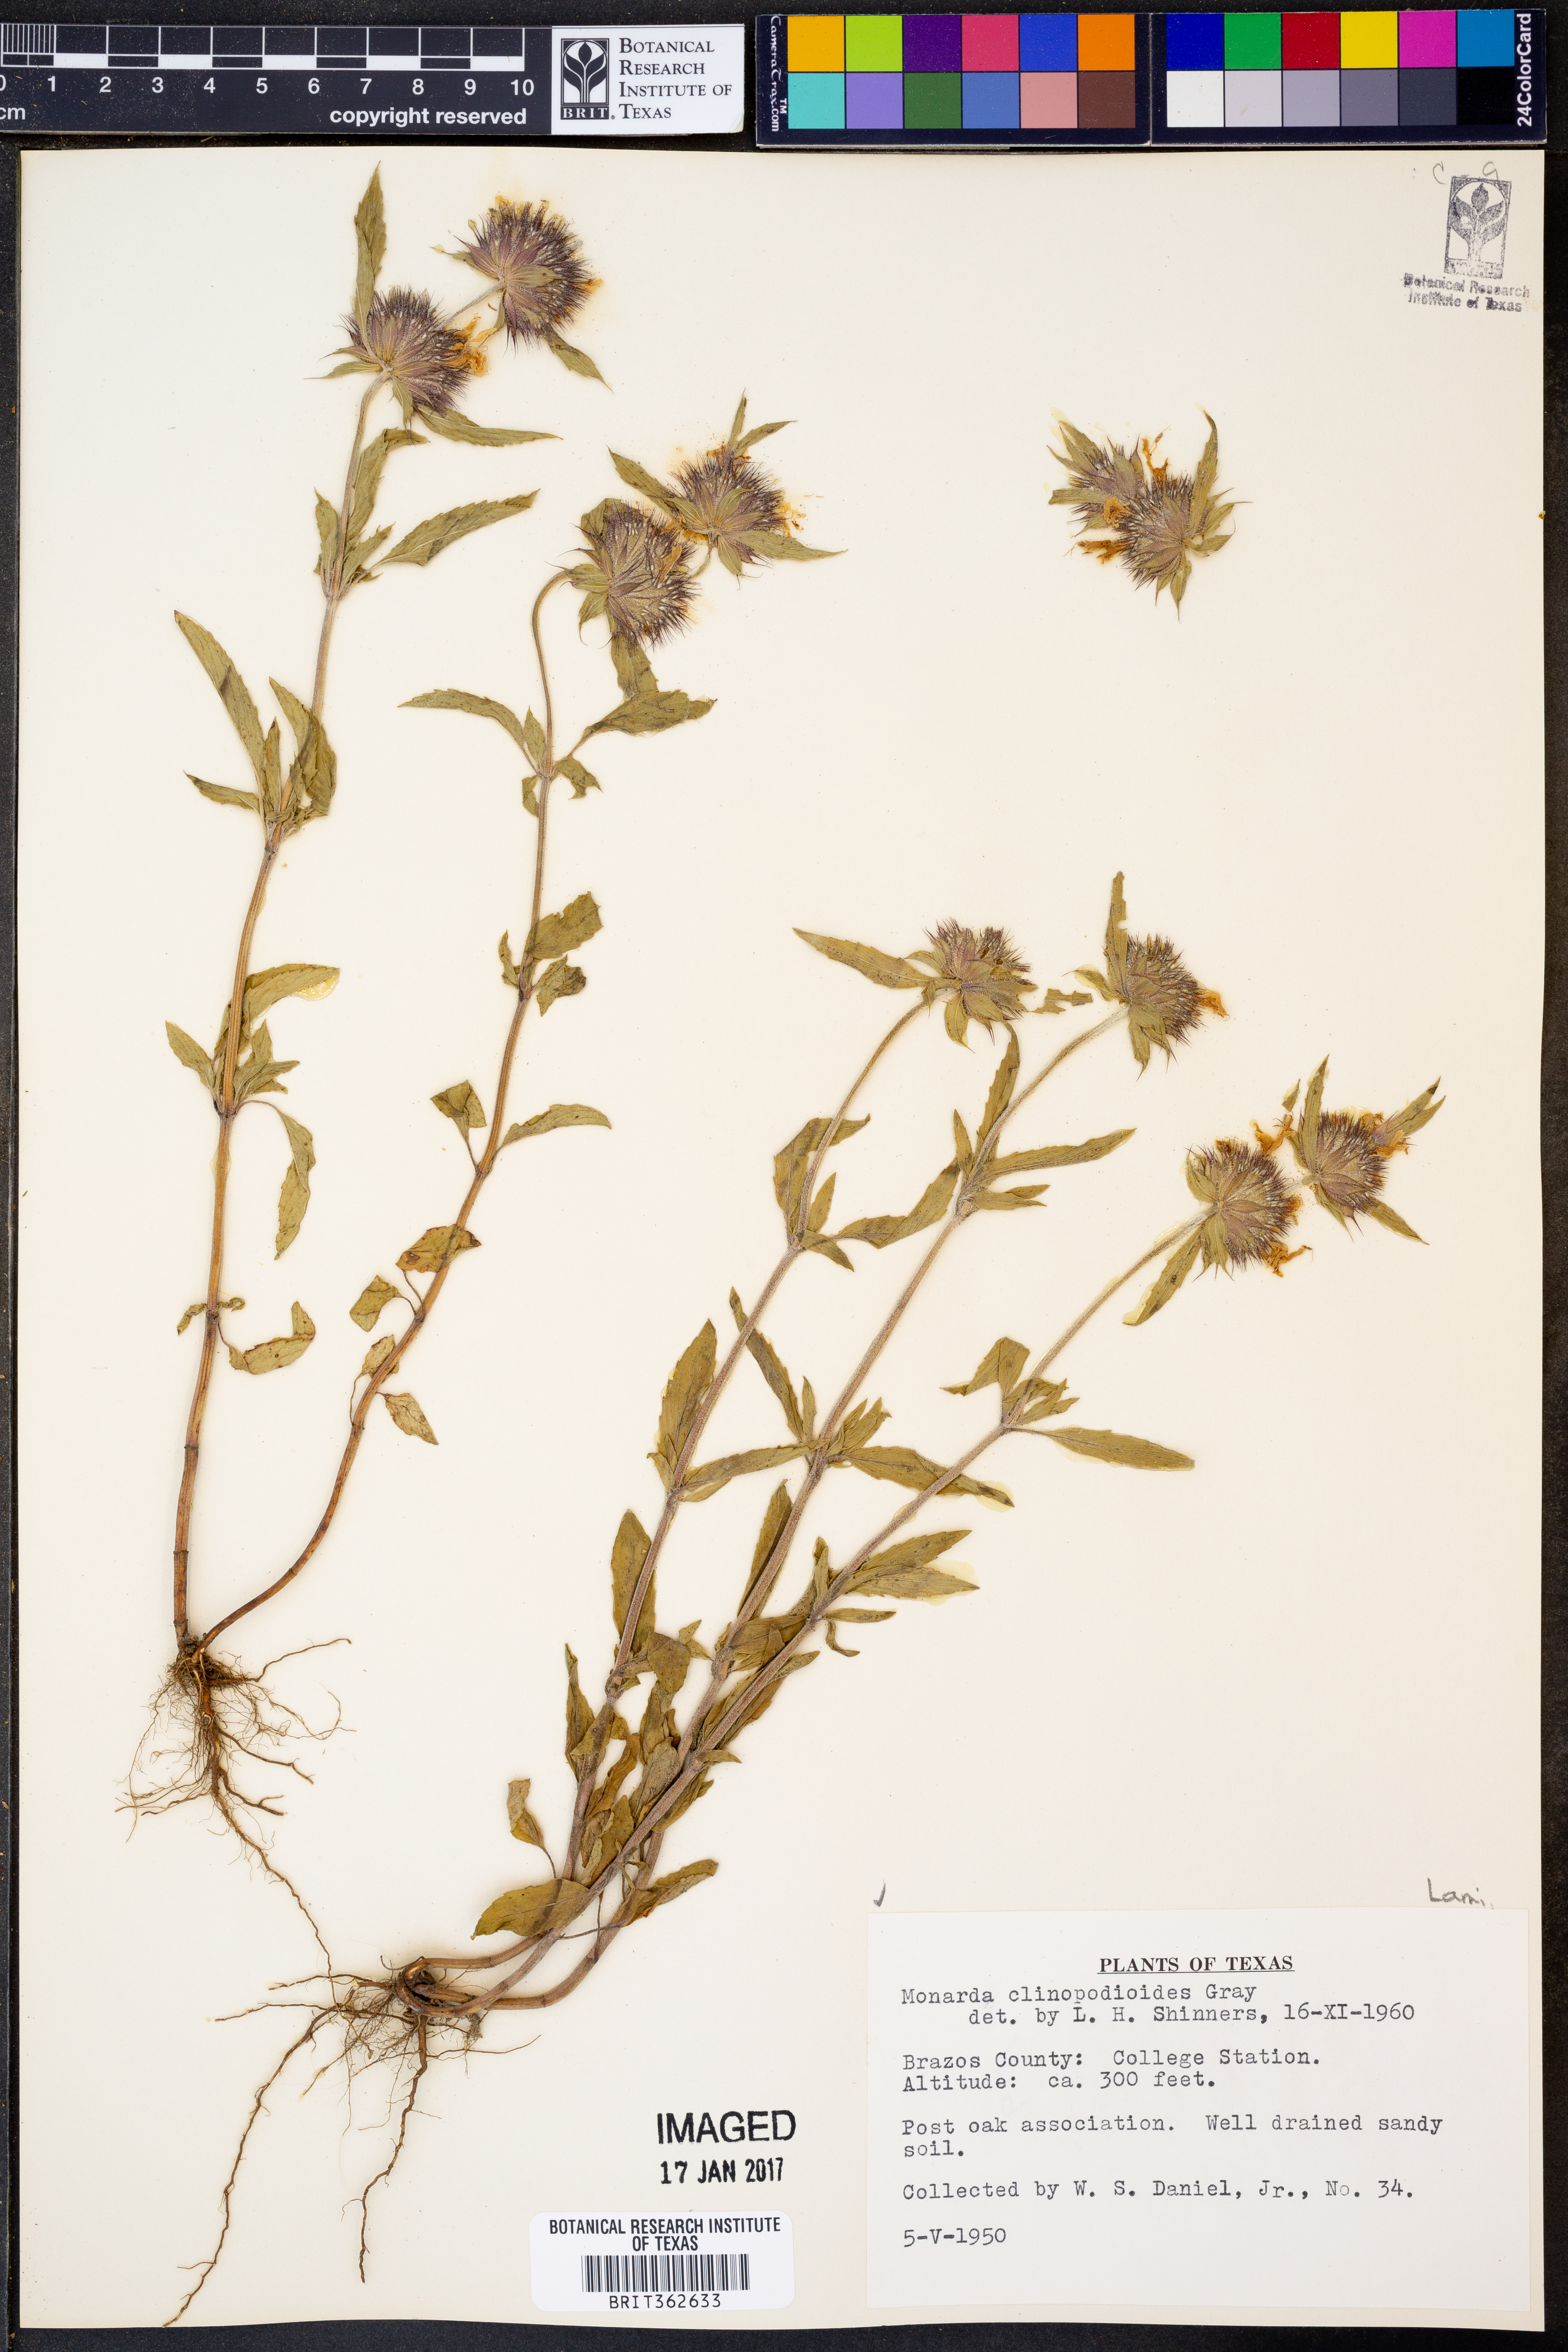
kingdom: Plantae
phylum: Tracheophyta
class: Magnoliopsida
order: Lamiales
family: Lamiaceae
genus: Monarda
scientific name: Monarda clinopodioides
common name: Basil beebalm
